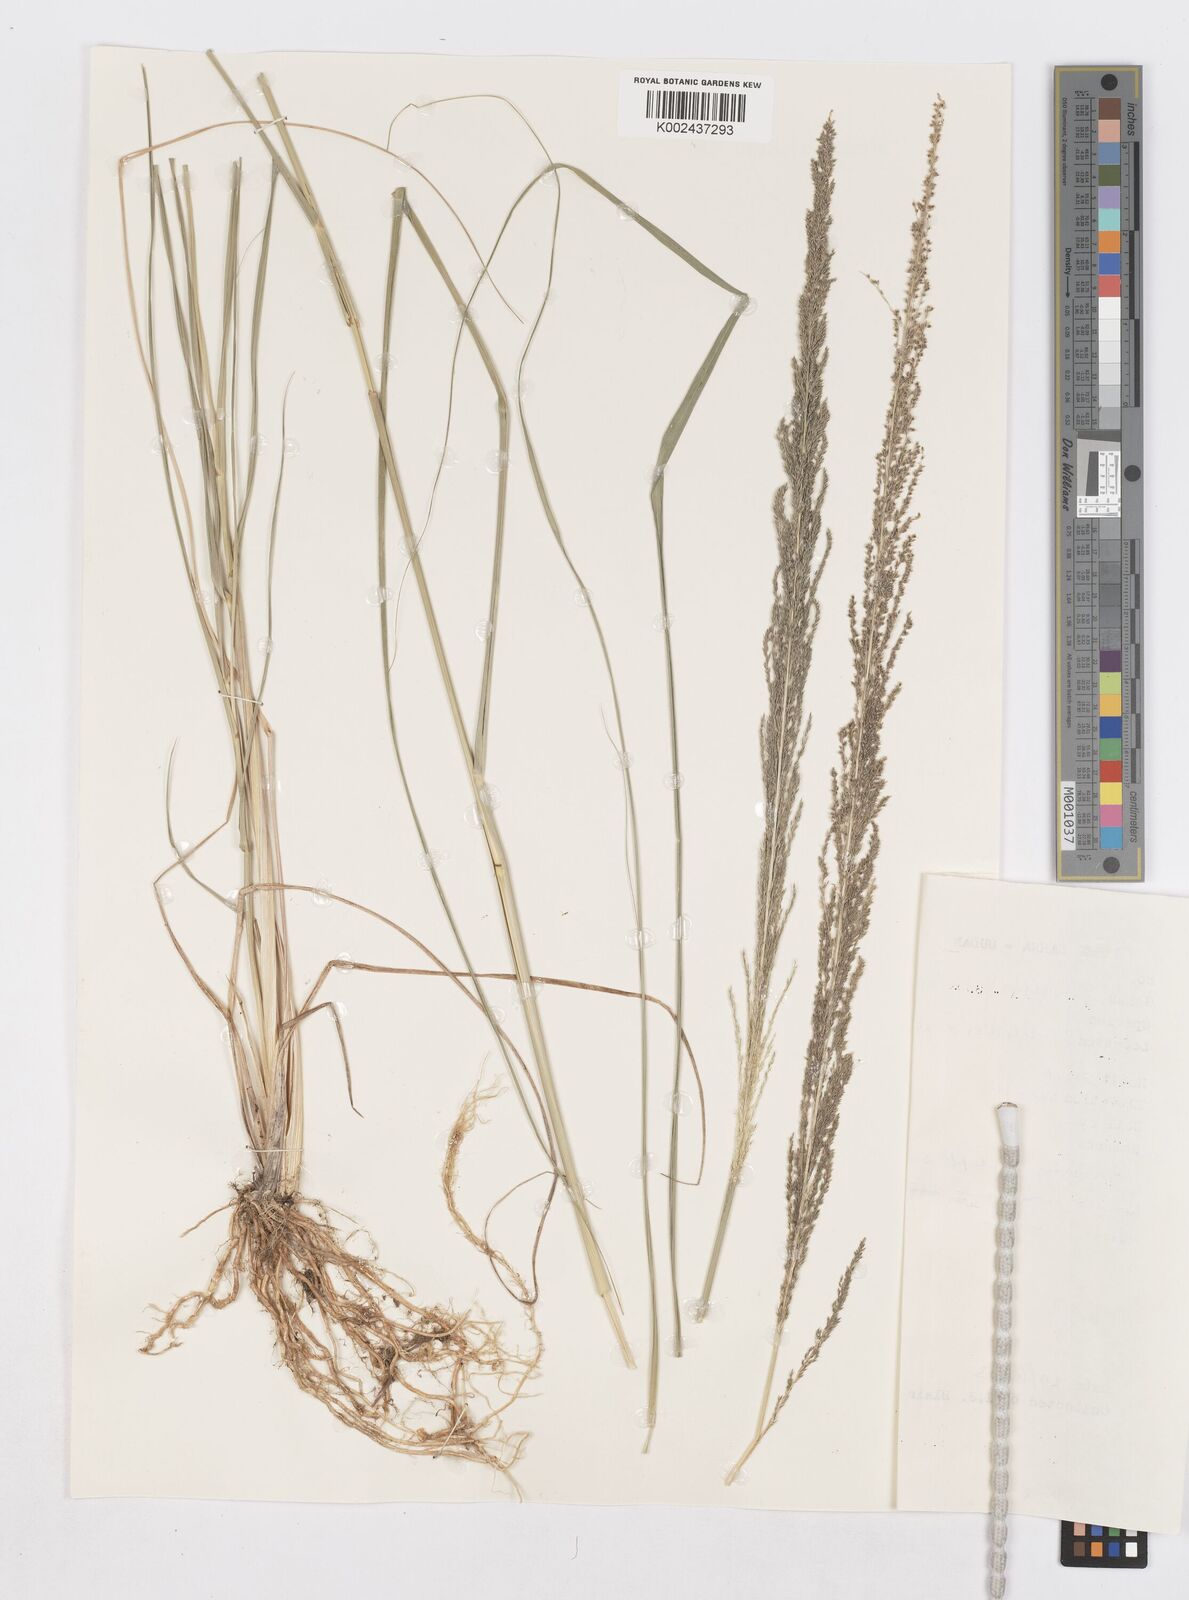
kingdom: Plantae
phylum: Tracheophyta
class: Liliopsida
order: Poales
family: Poaceae
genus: Sporobolus
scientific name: Sporobolus pyramidalis
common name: West indian dropseed
